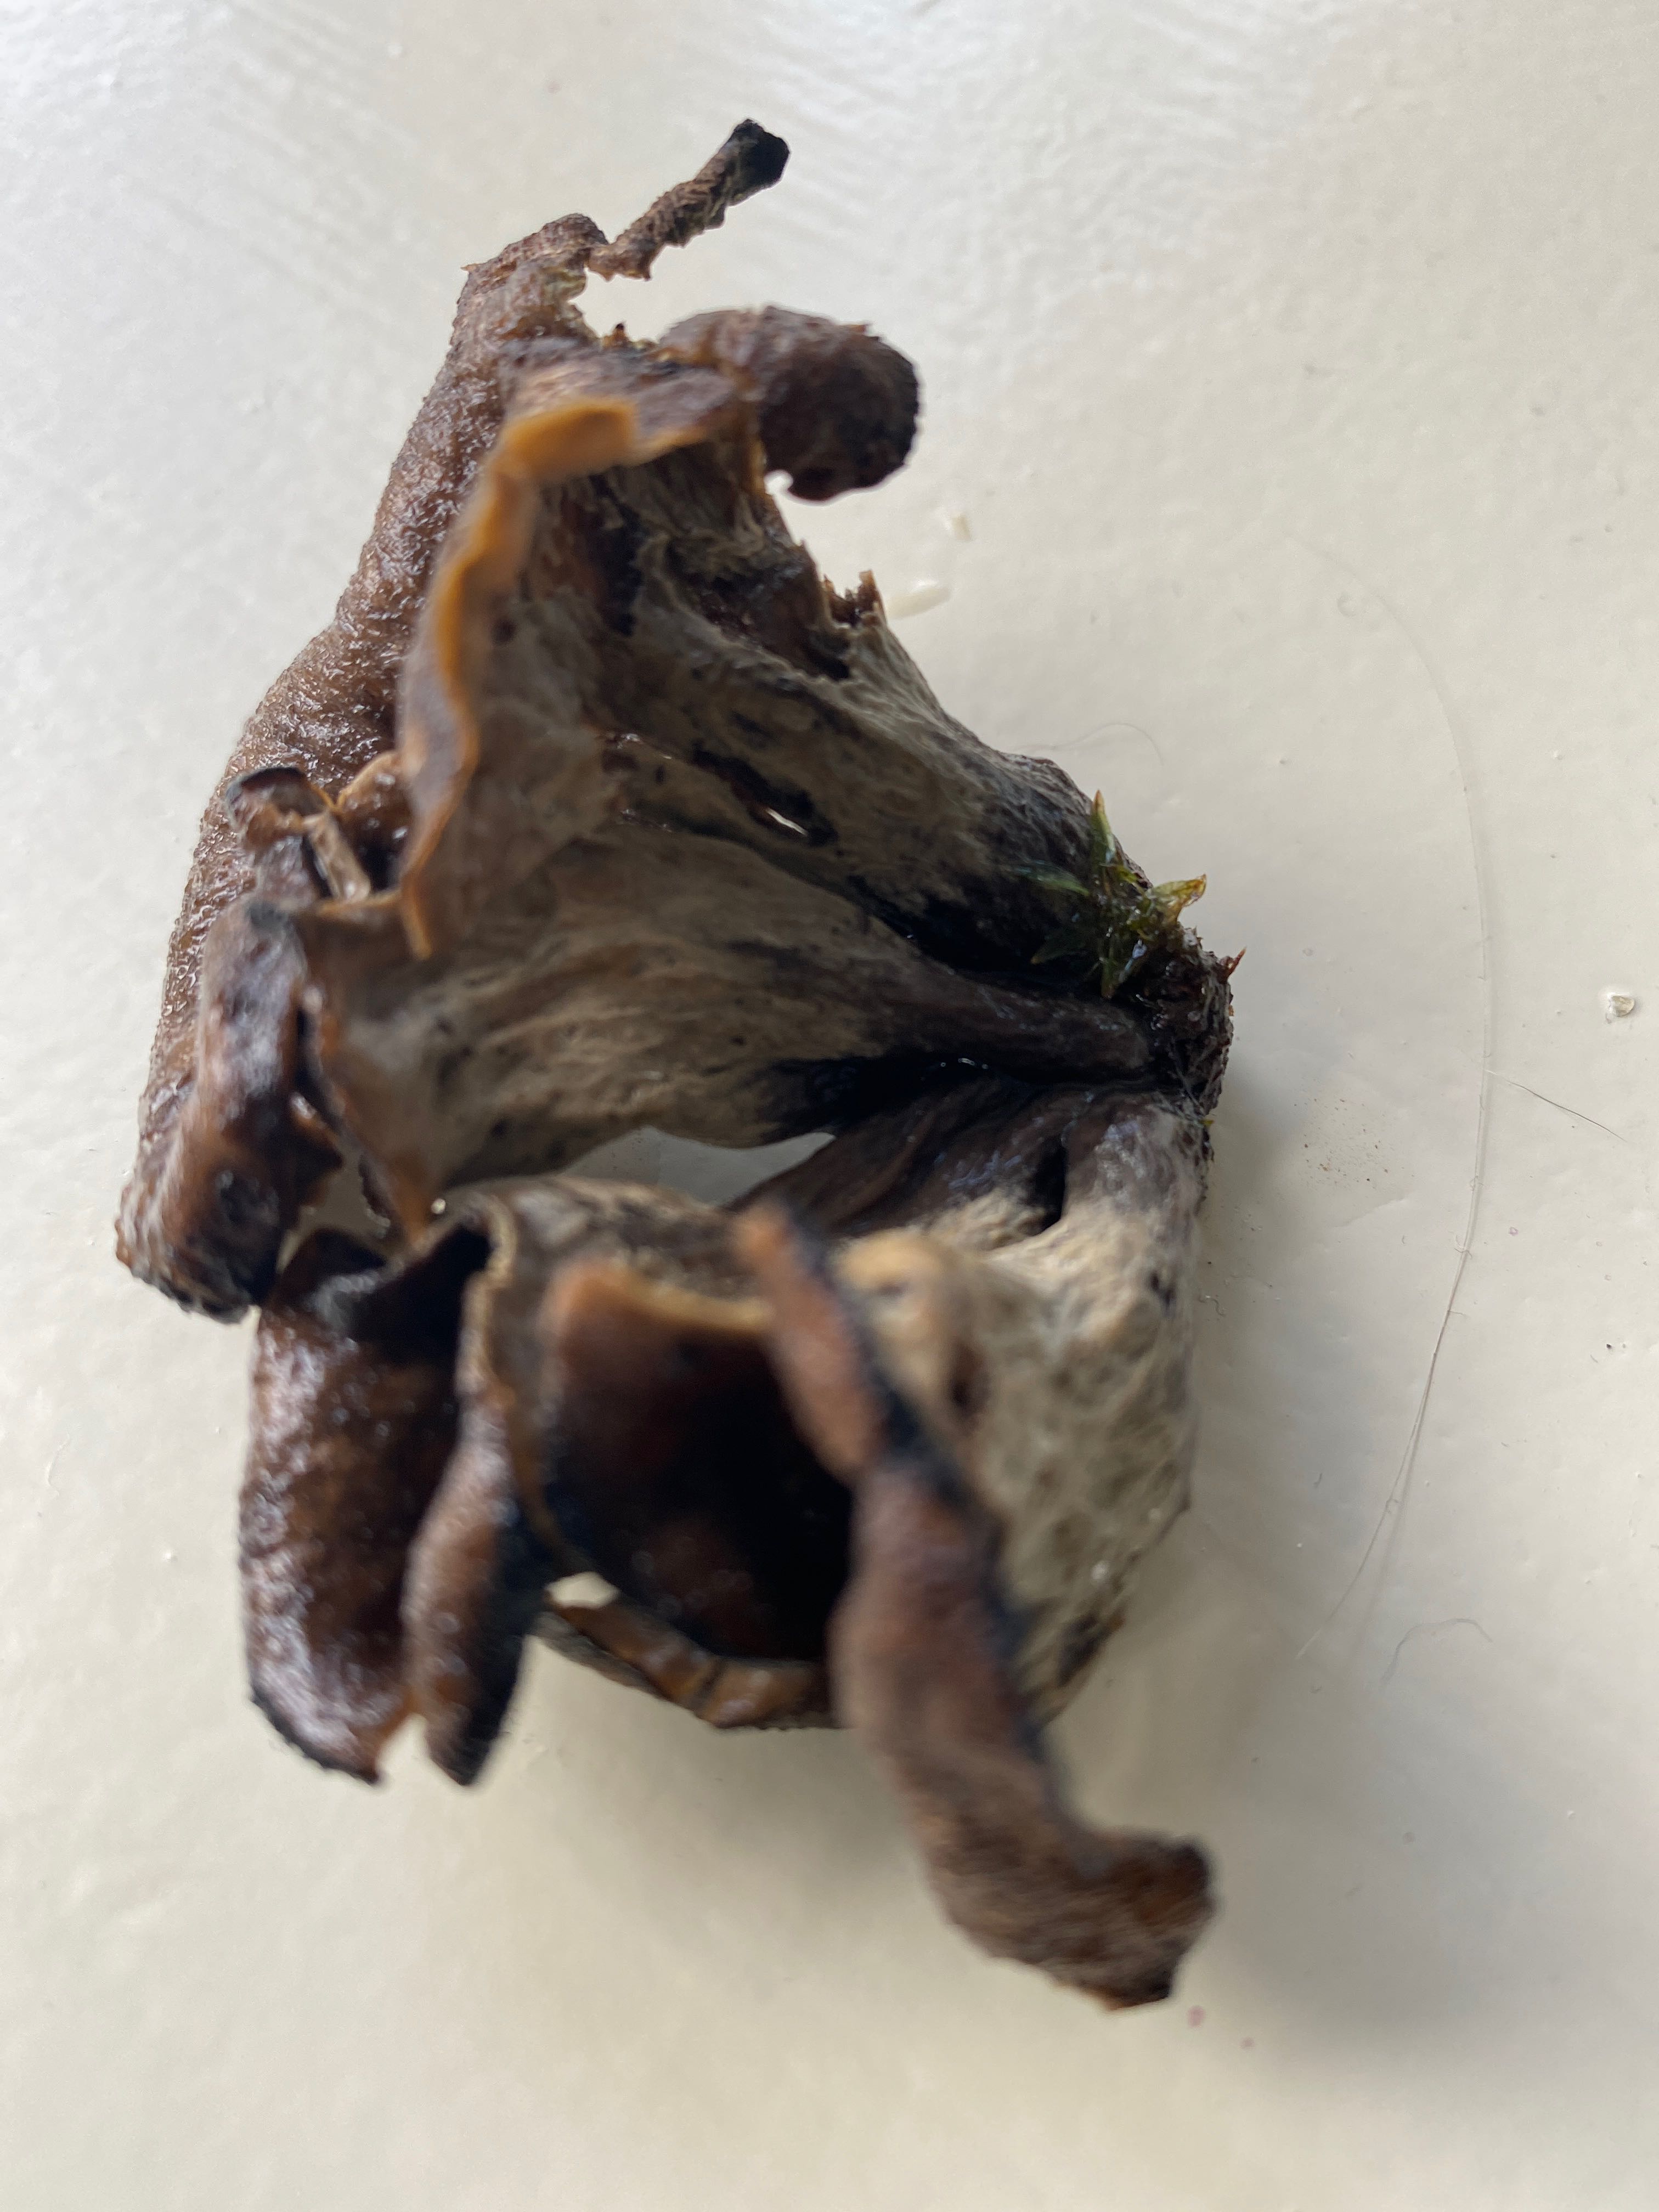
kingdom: Fungi
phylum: Basidiomycota
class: Agaricomycetes
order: Cantharellales
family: Hydnaceae
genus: Craterellus
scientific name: Craterellus cornucopioides
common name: trompetsvamp
